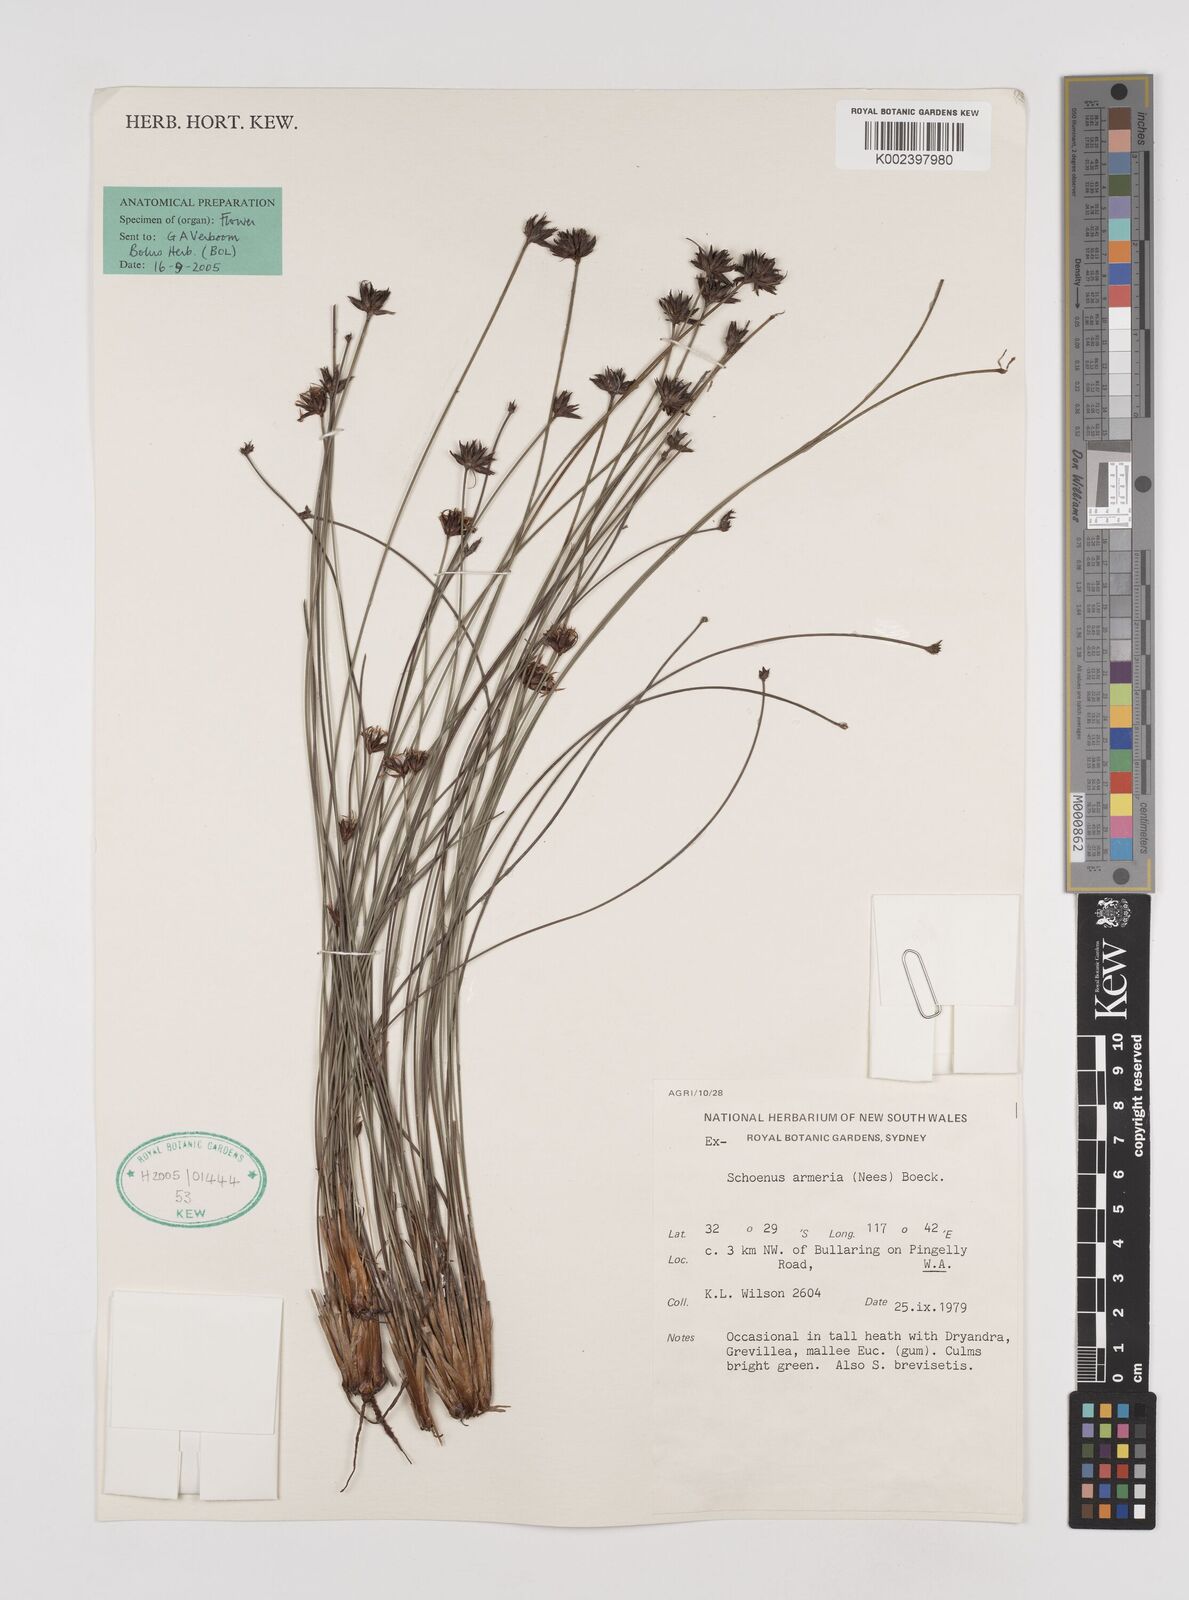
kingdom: Plantae
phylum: Tracheophyta
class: Liliopsida
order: Poales
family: Cyperaceae
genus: Schoenus
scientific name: Schoenus globifer
